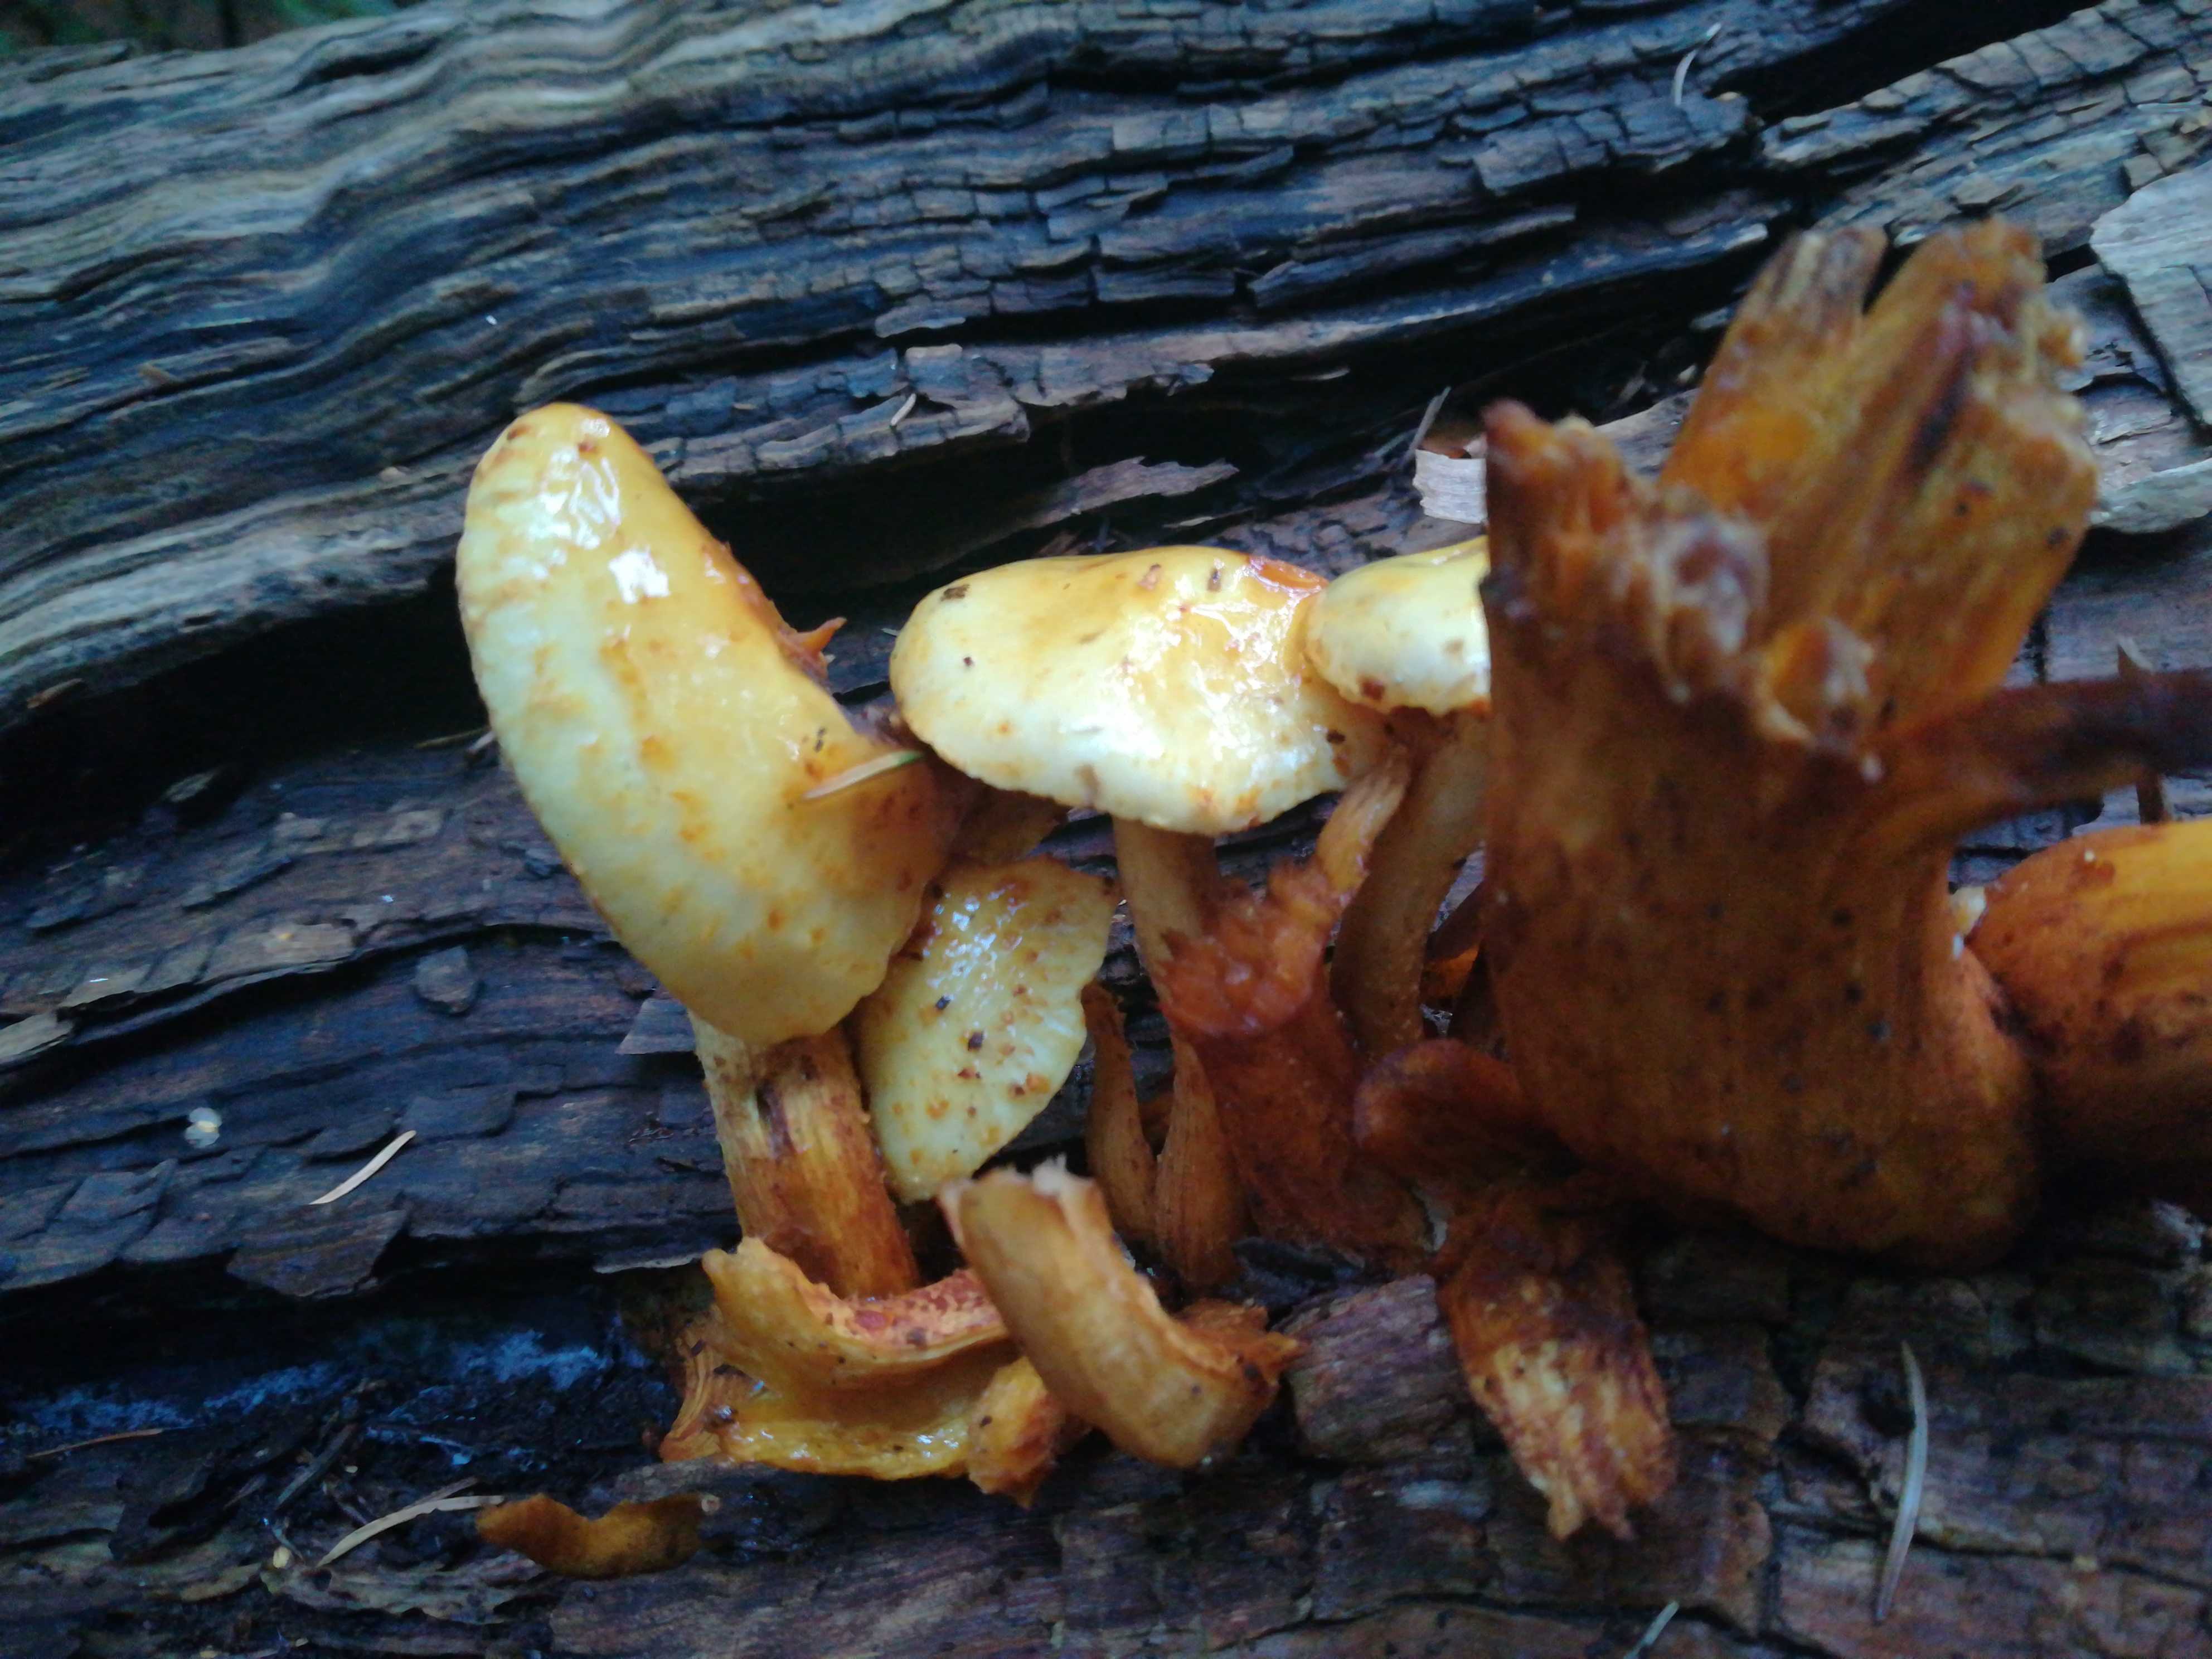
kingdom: Fungi
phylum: Basidiomycota
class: Agaricomycetes
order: Agaricales
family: Strophariaceae
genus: Pholiota
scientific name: Pholiota adiposa
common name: højtsiddende skælhat
